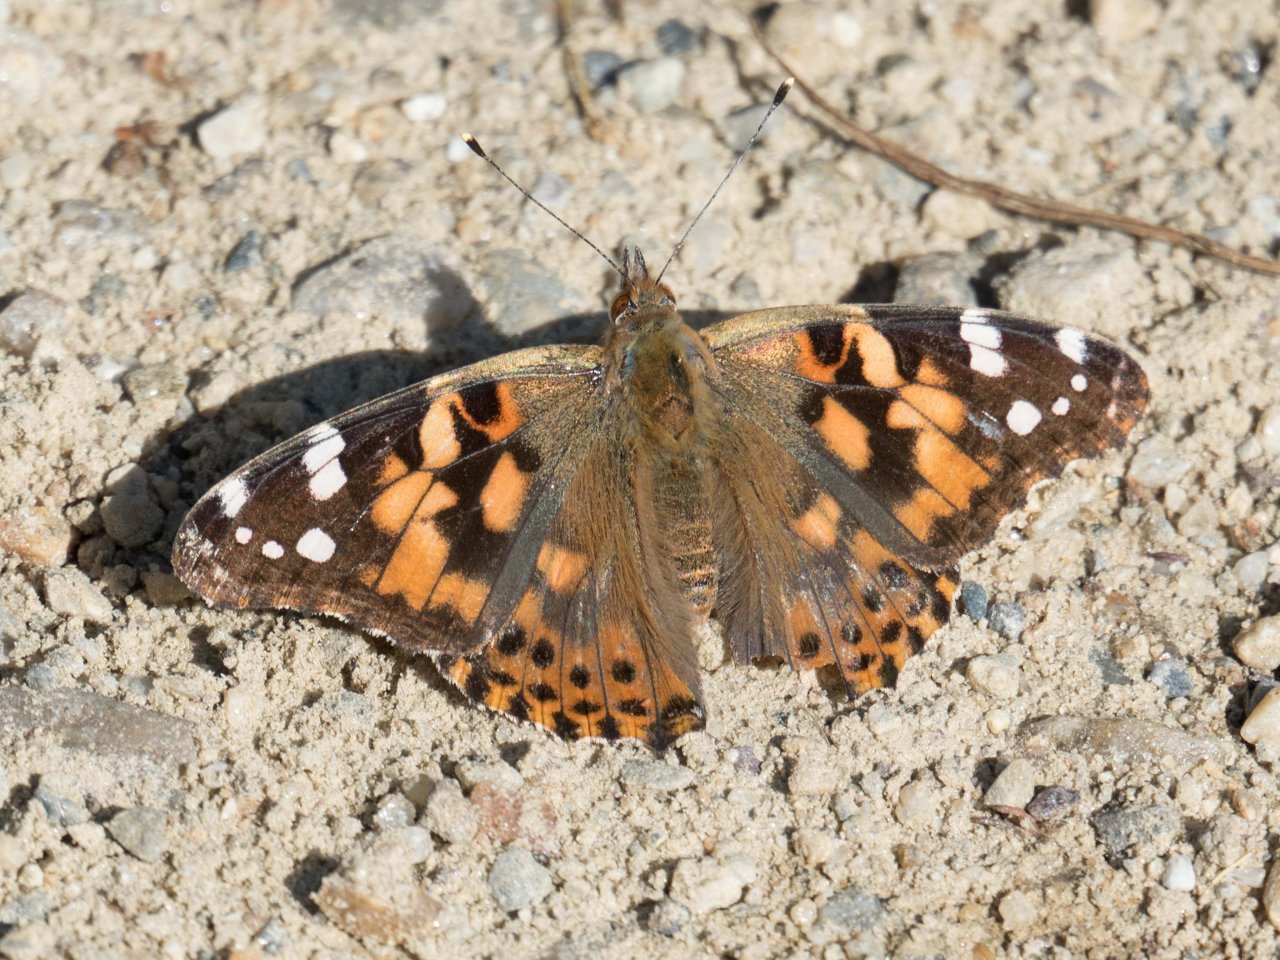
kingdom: Animalia
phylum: Arthropoda
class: Insecta
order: Lepidoptera
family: Nymphalidae
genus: Vanessa
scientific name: Vanessa cardui
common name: Painted Lady
